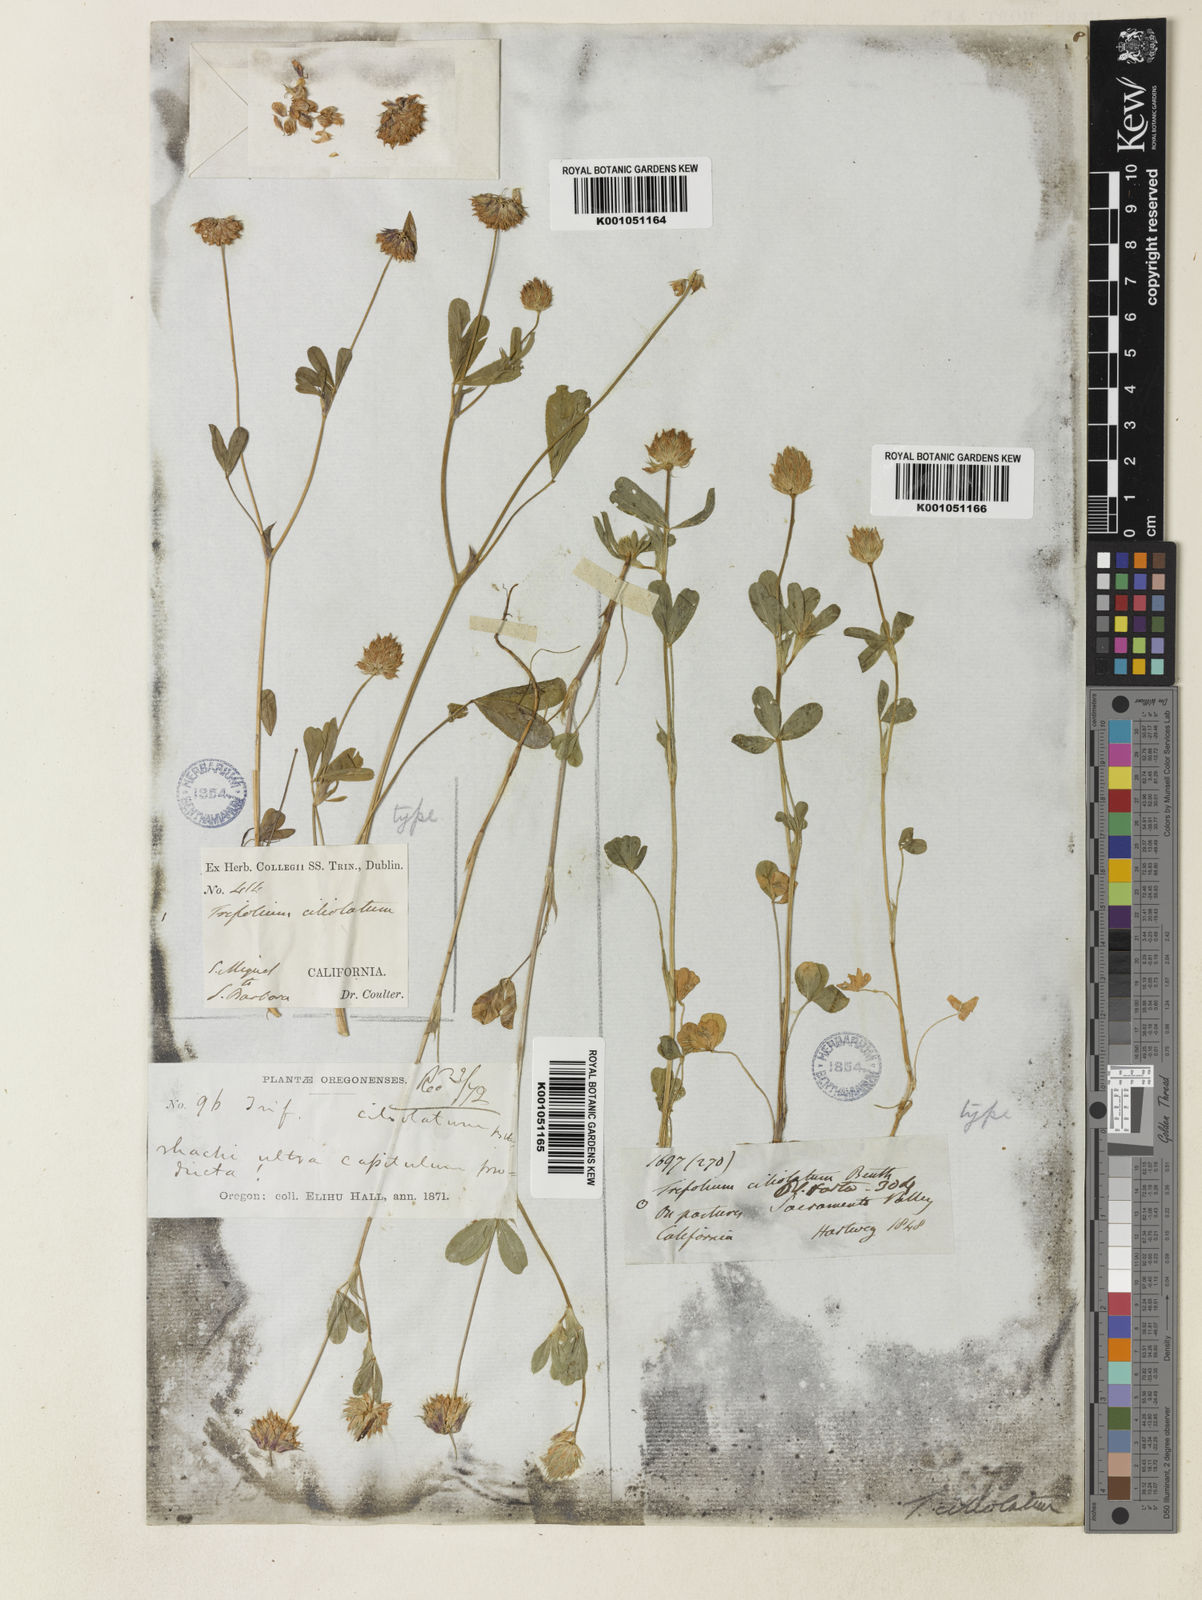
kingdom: Plantae
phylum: Tracheophyta
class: Magnoliopsida
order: Fabales
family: Fabaceae
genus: Trifolium
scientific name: Trifolium ciliolatum
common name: Foothill clover
